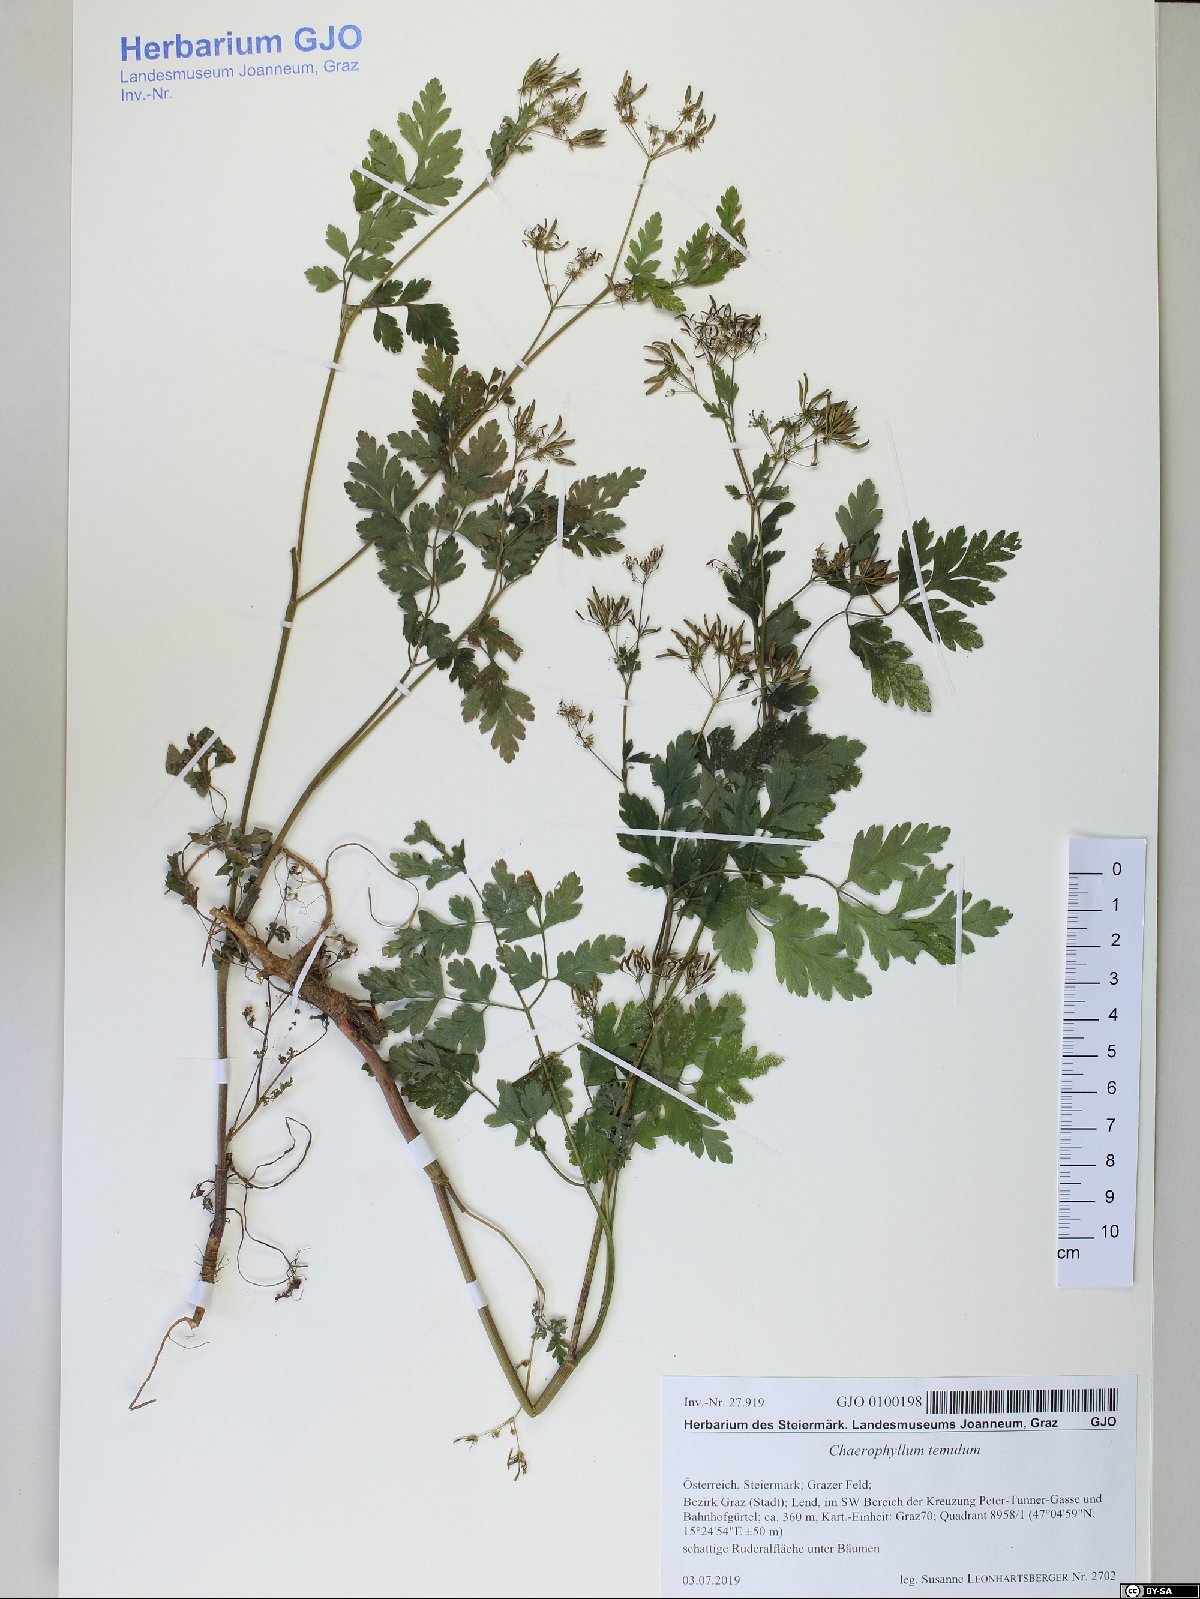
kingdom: Plantae
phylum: Tracheophyta
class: Magnoliopsida
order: Apiales
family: Apiaceae
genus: Chaerophyllum
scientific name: Chaerophyllum temulum
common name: Rough chervil
